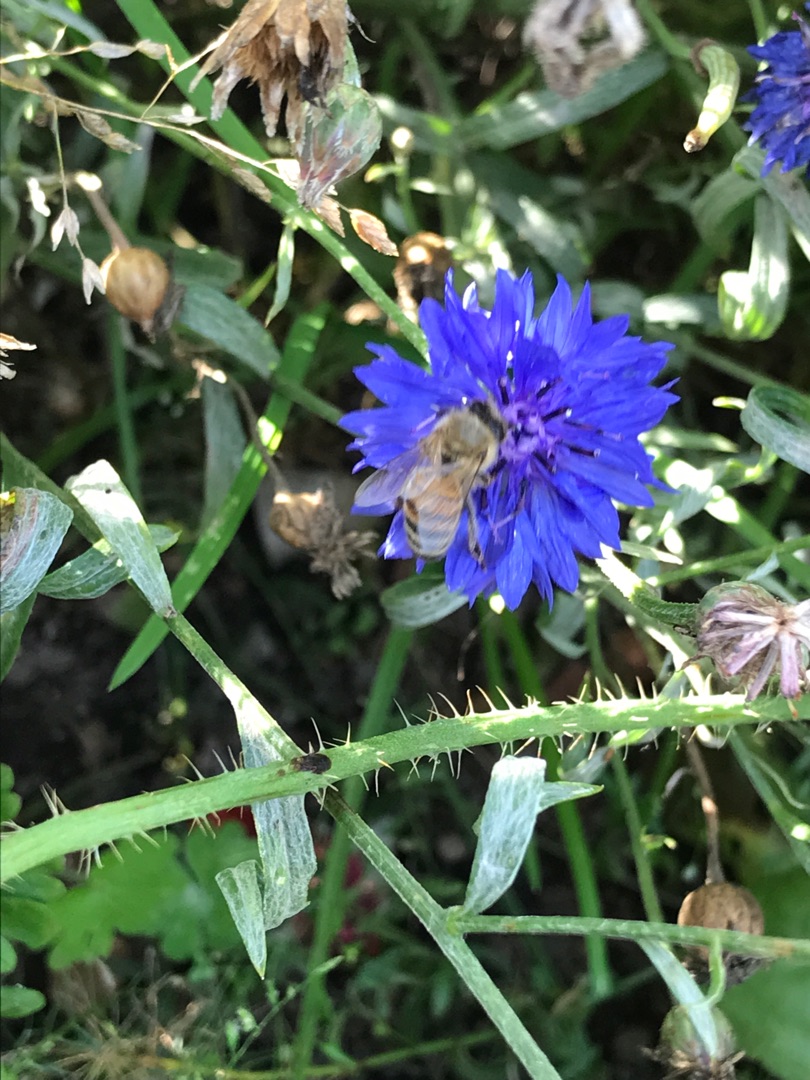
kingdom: Animalia
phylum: Arthropoda
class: Insecta
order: Hymenoptera
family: Apidae
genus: Apis
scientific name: Apis mellifera
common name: Honningbi
